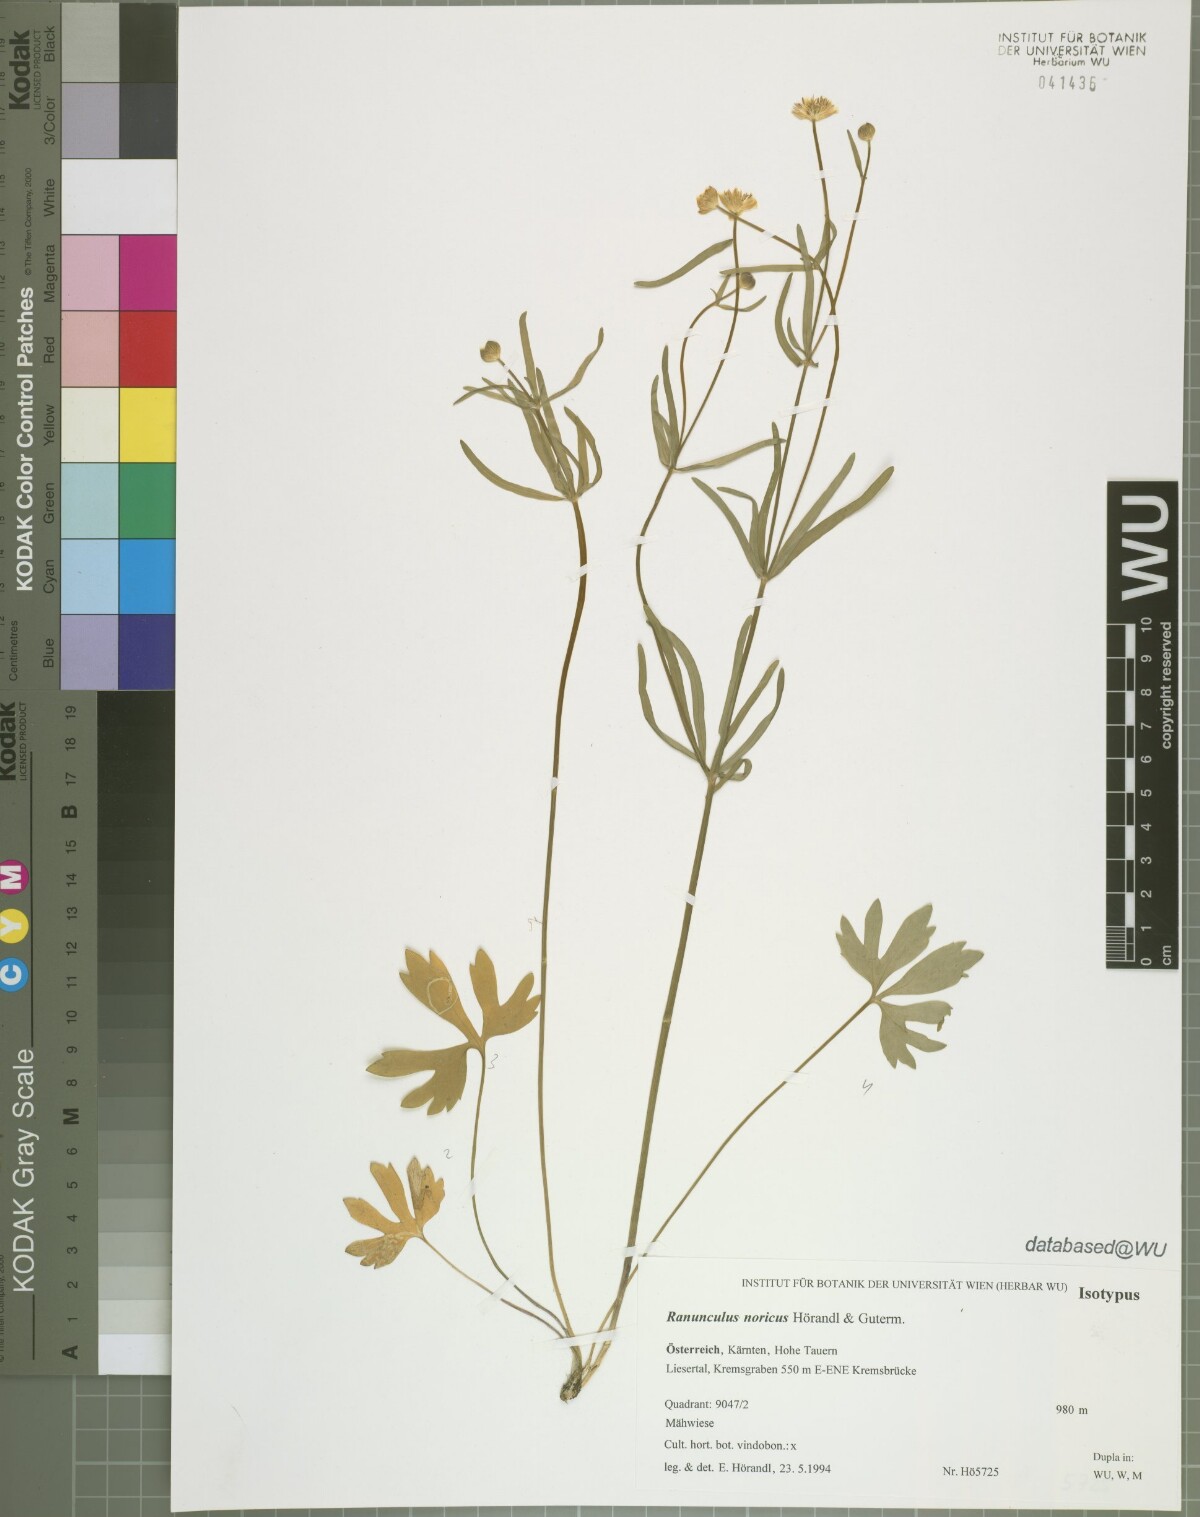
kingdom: Plantae
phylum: Tracheophyta
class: Magnoliopsida
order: Ranunculales
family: Ranunculaceae
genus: Ranunculus
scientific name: Ranunculus noricus
